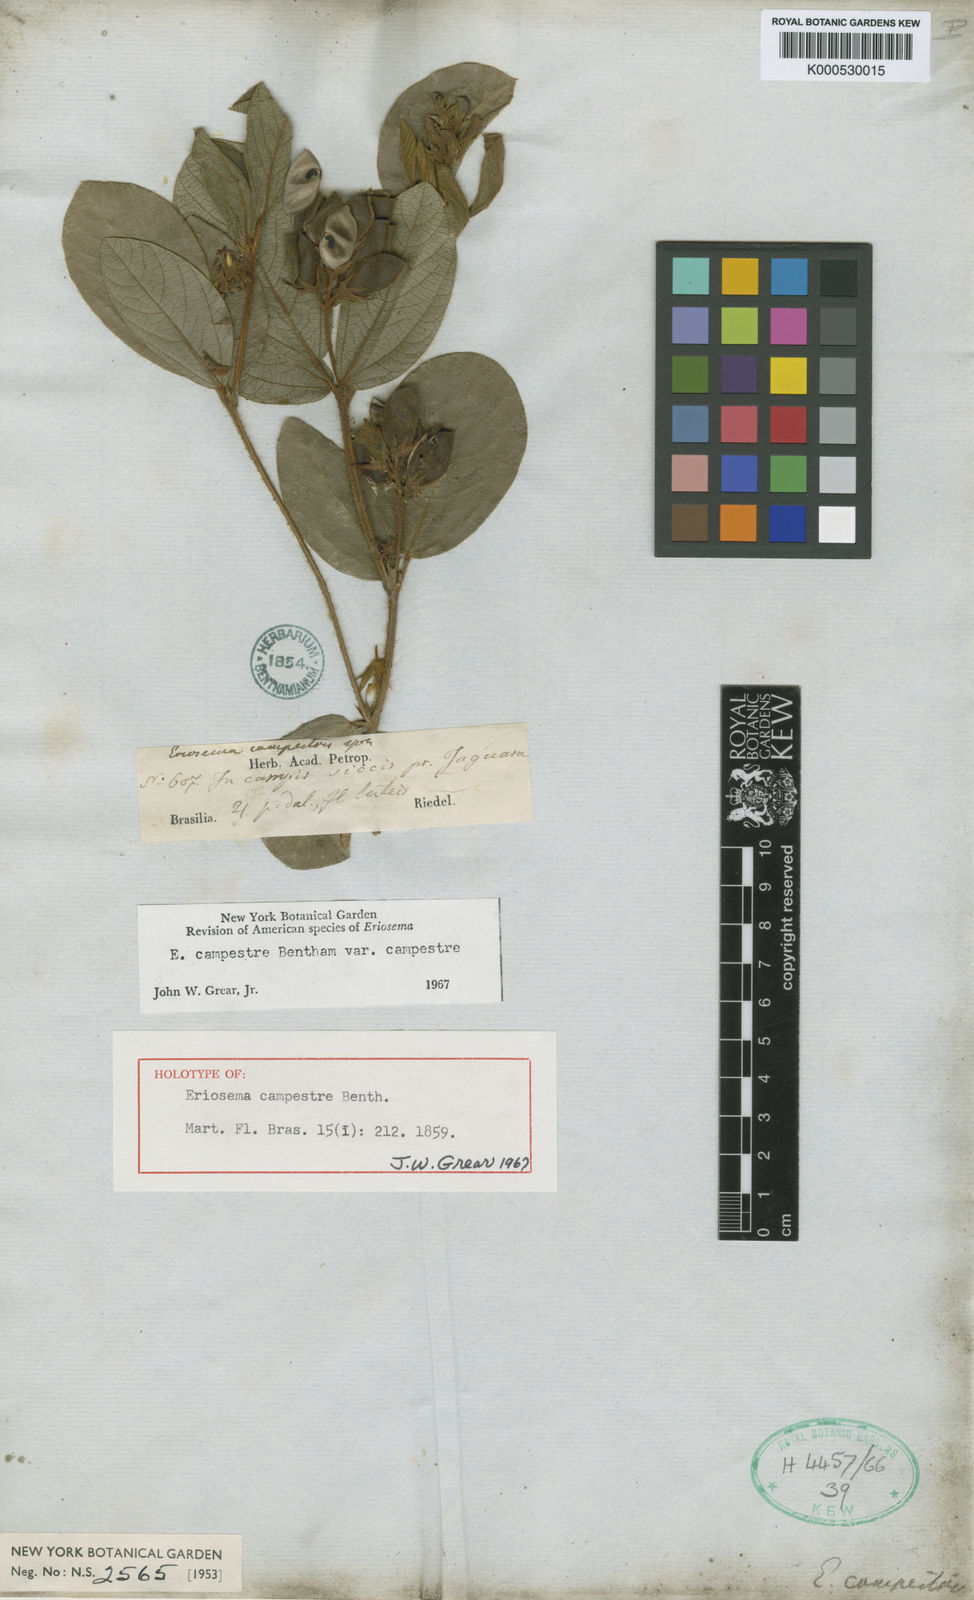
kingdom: Plantae
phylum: Tracheophyta
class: Magnoliopsida
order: Fabales
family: Fabaceae
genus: Eriosema
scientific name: Eriosema campestre
